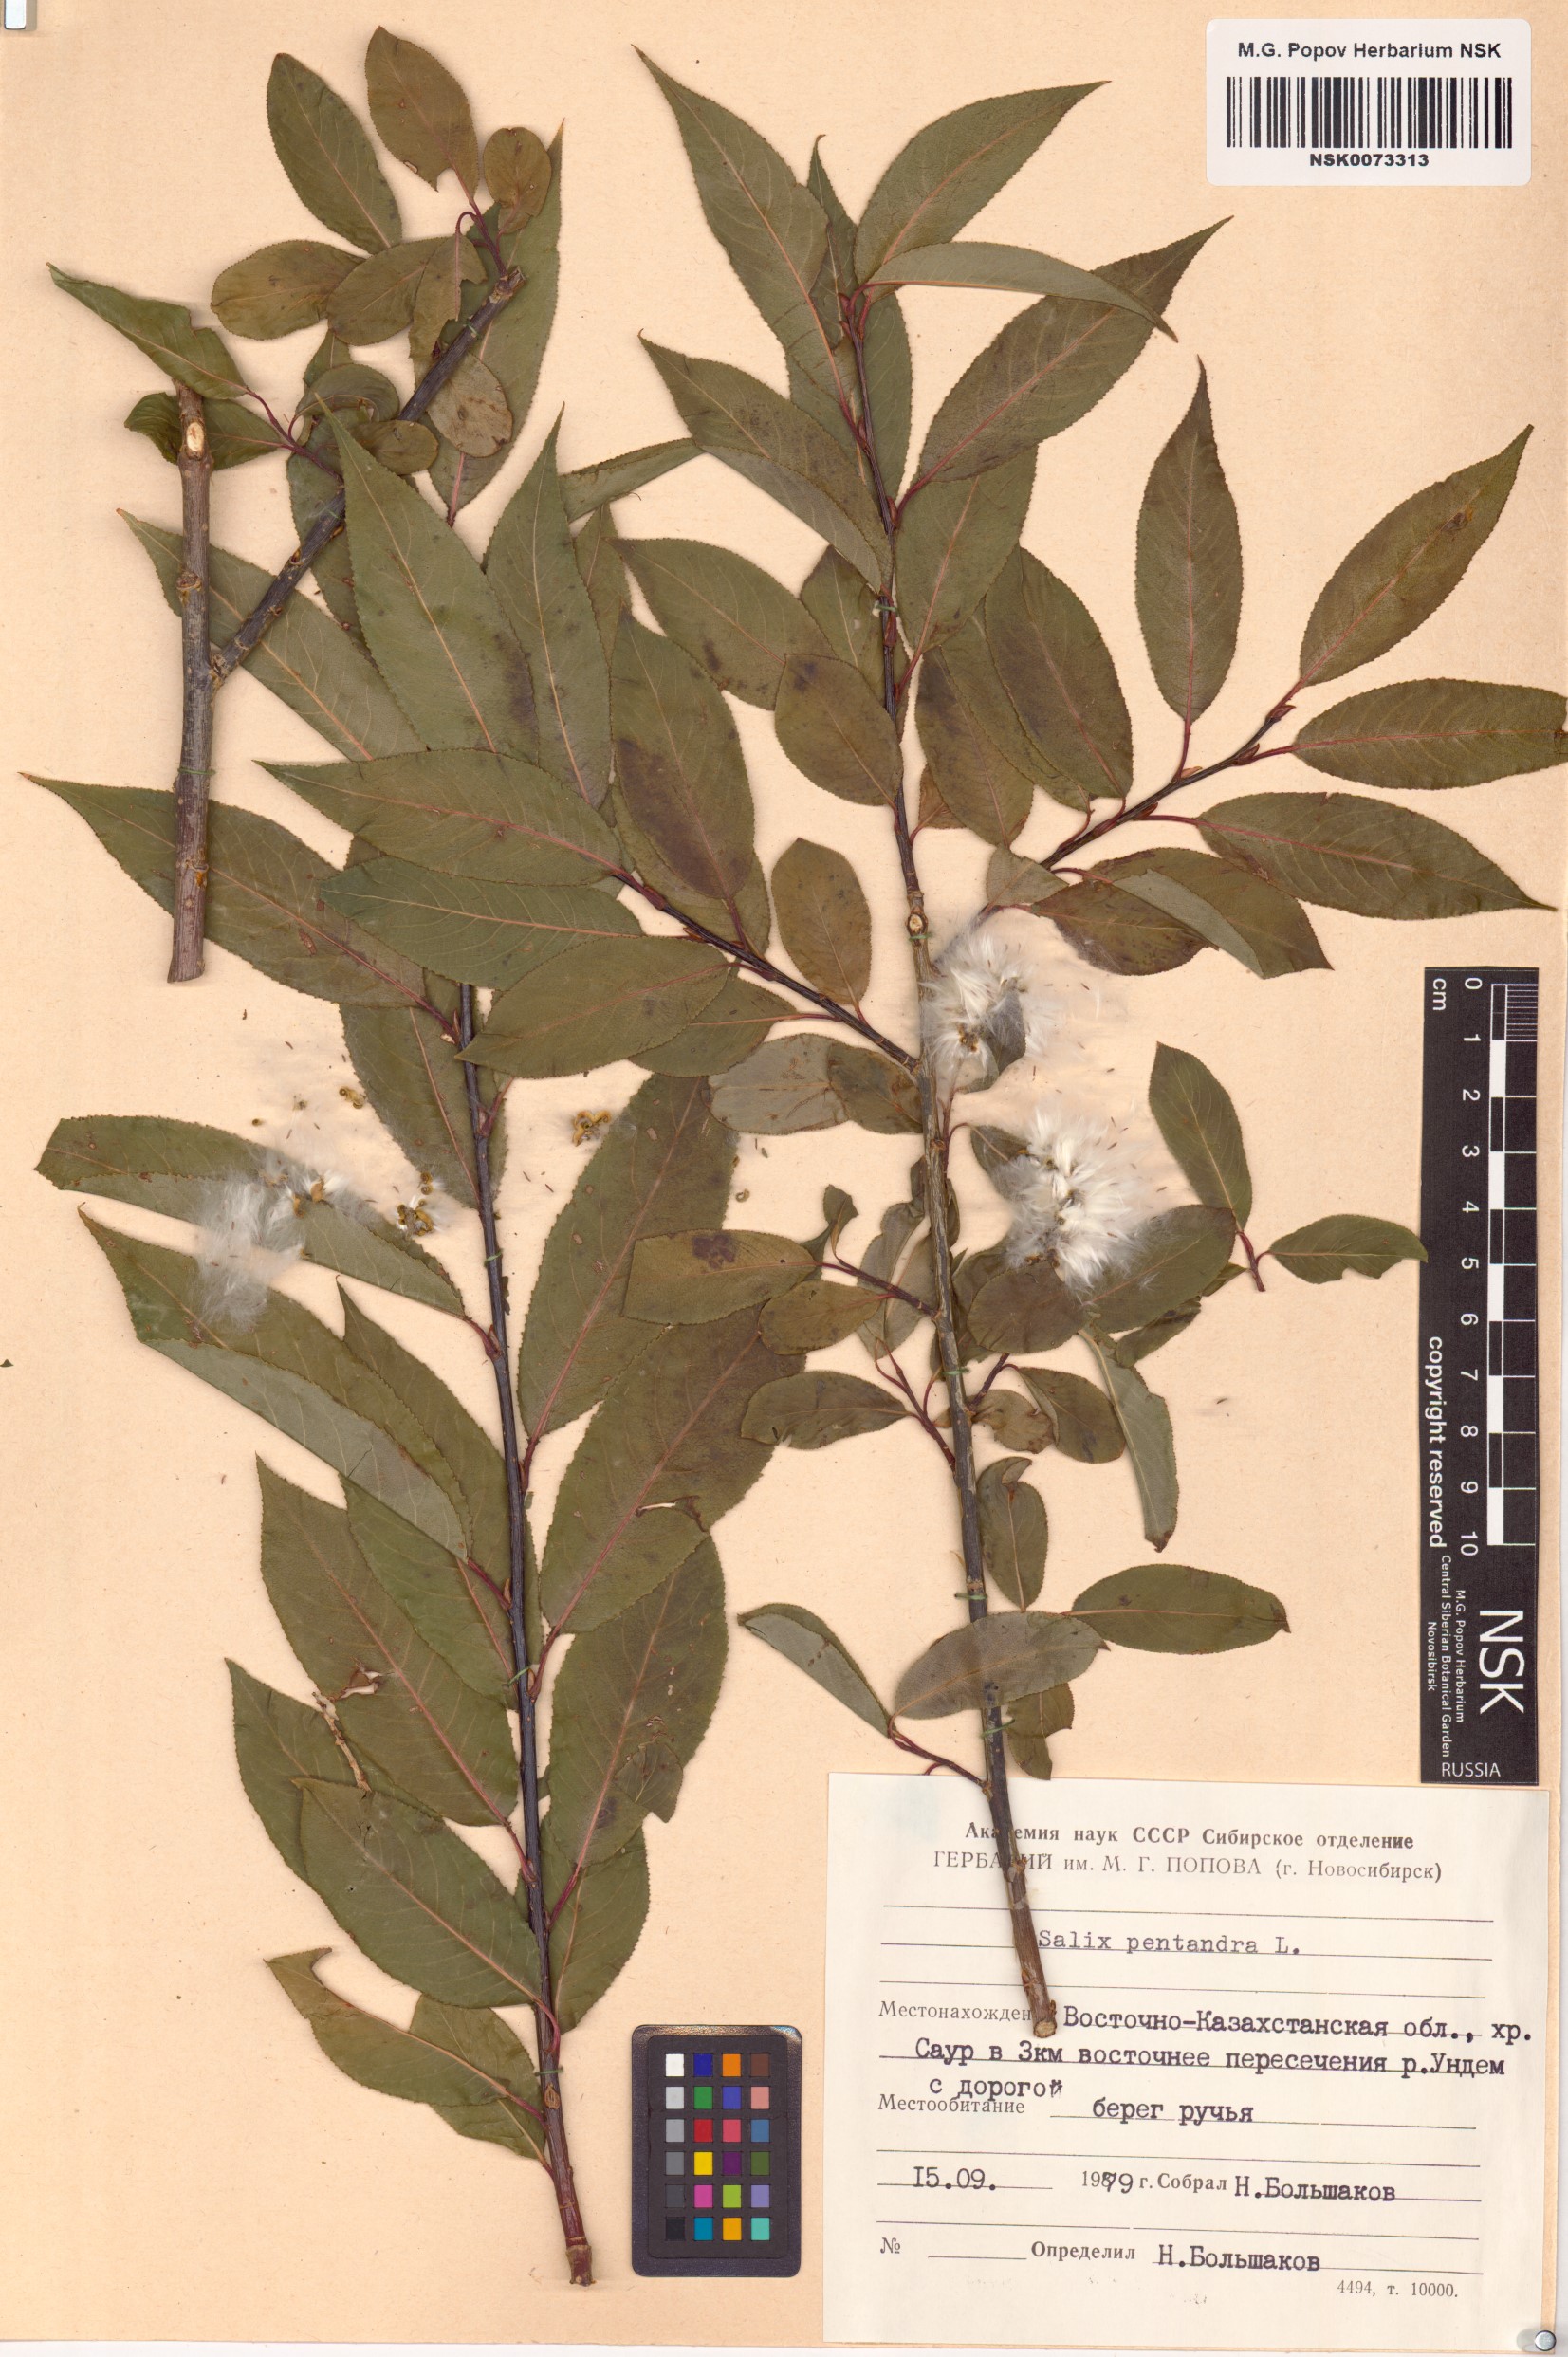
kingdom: Plantae
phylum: Tracheophyta
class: Magnoliopsida
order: Malpighiales
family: Salicaceae
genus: Salix
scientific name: Salix pentandra
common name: Bay willow
